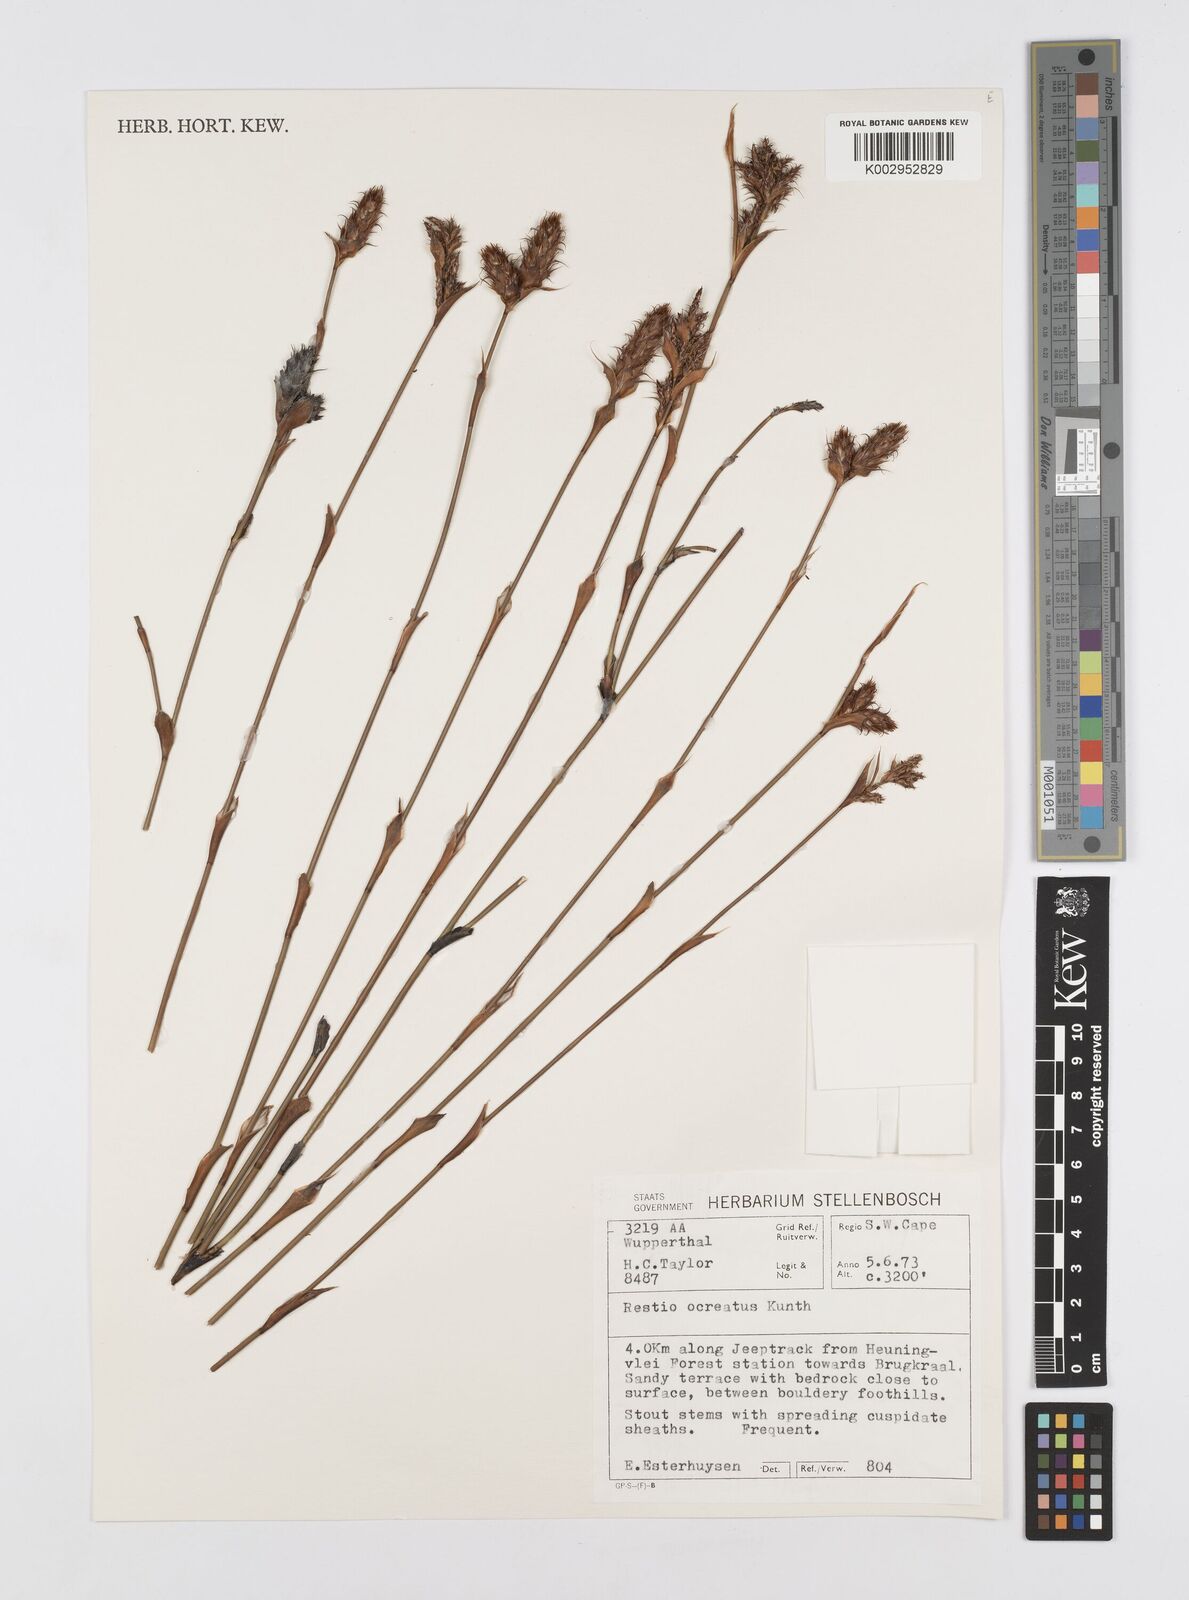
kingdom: Plantae
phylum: Tracheophyta
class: Liliopsida
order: Poales
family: Restionaceae
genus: Restio
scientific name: Restio ocreatus
